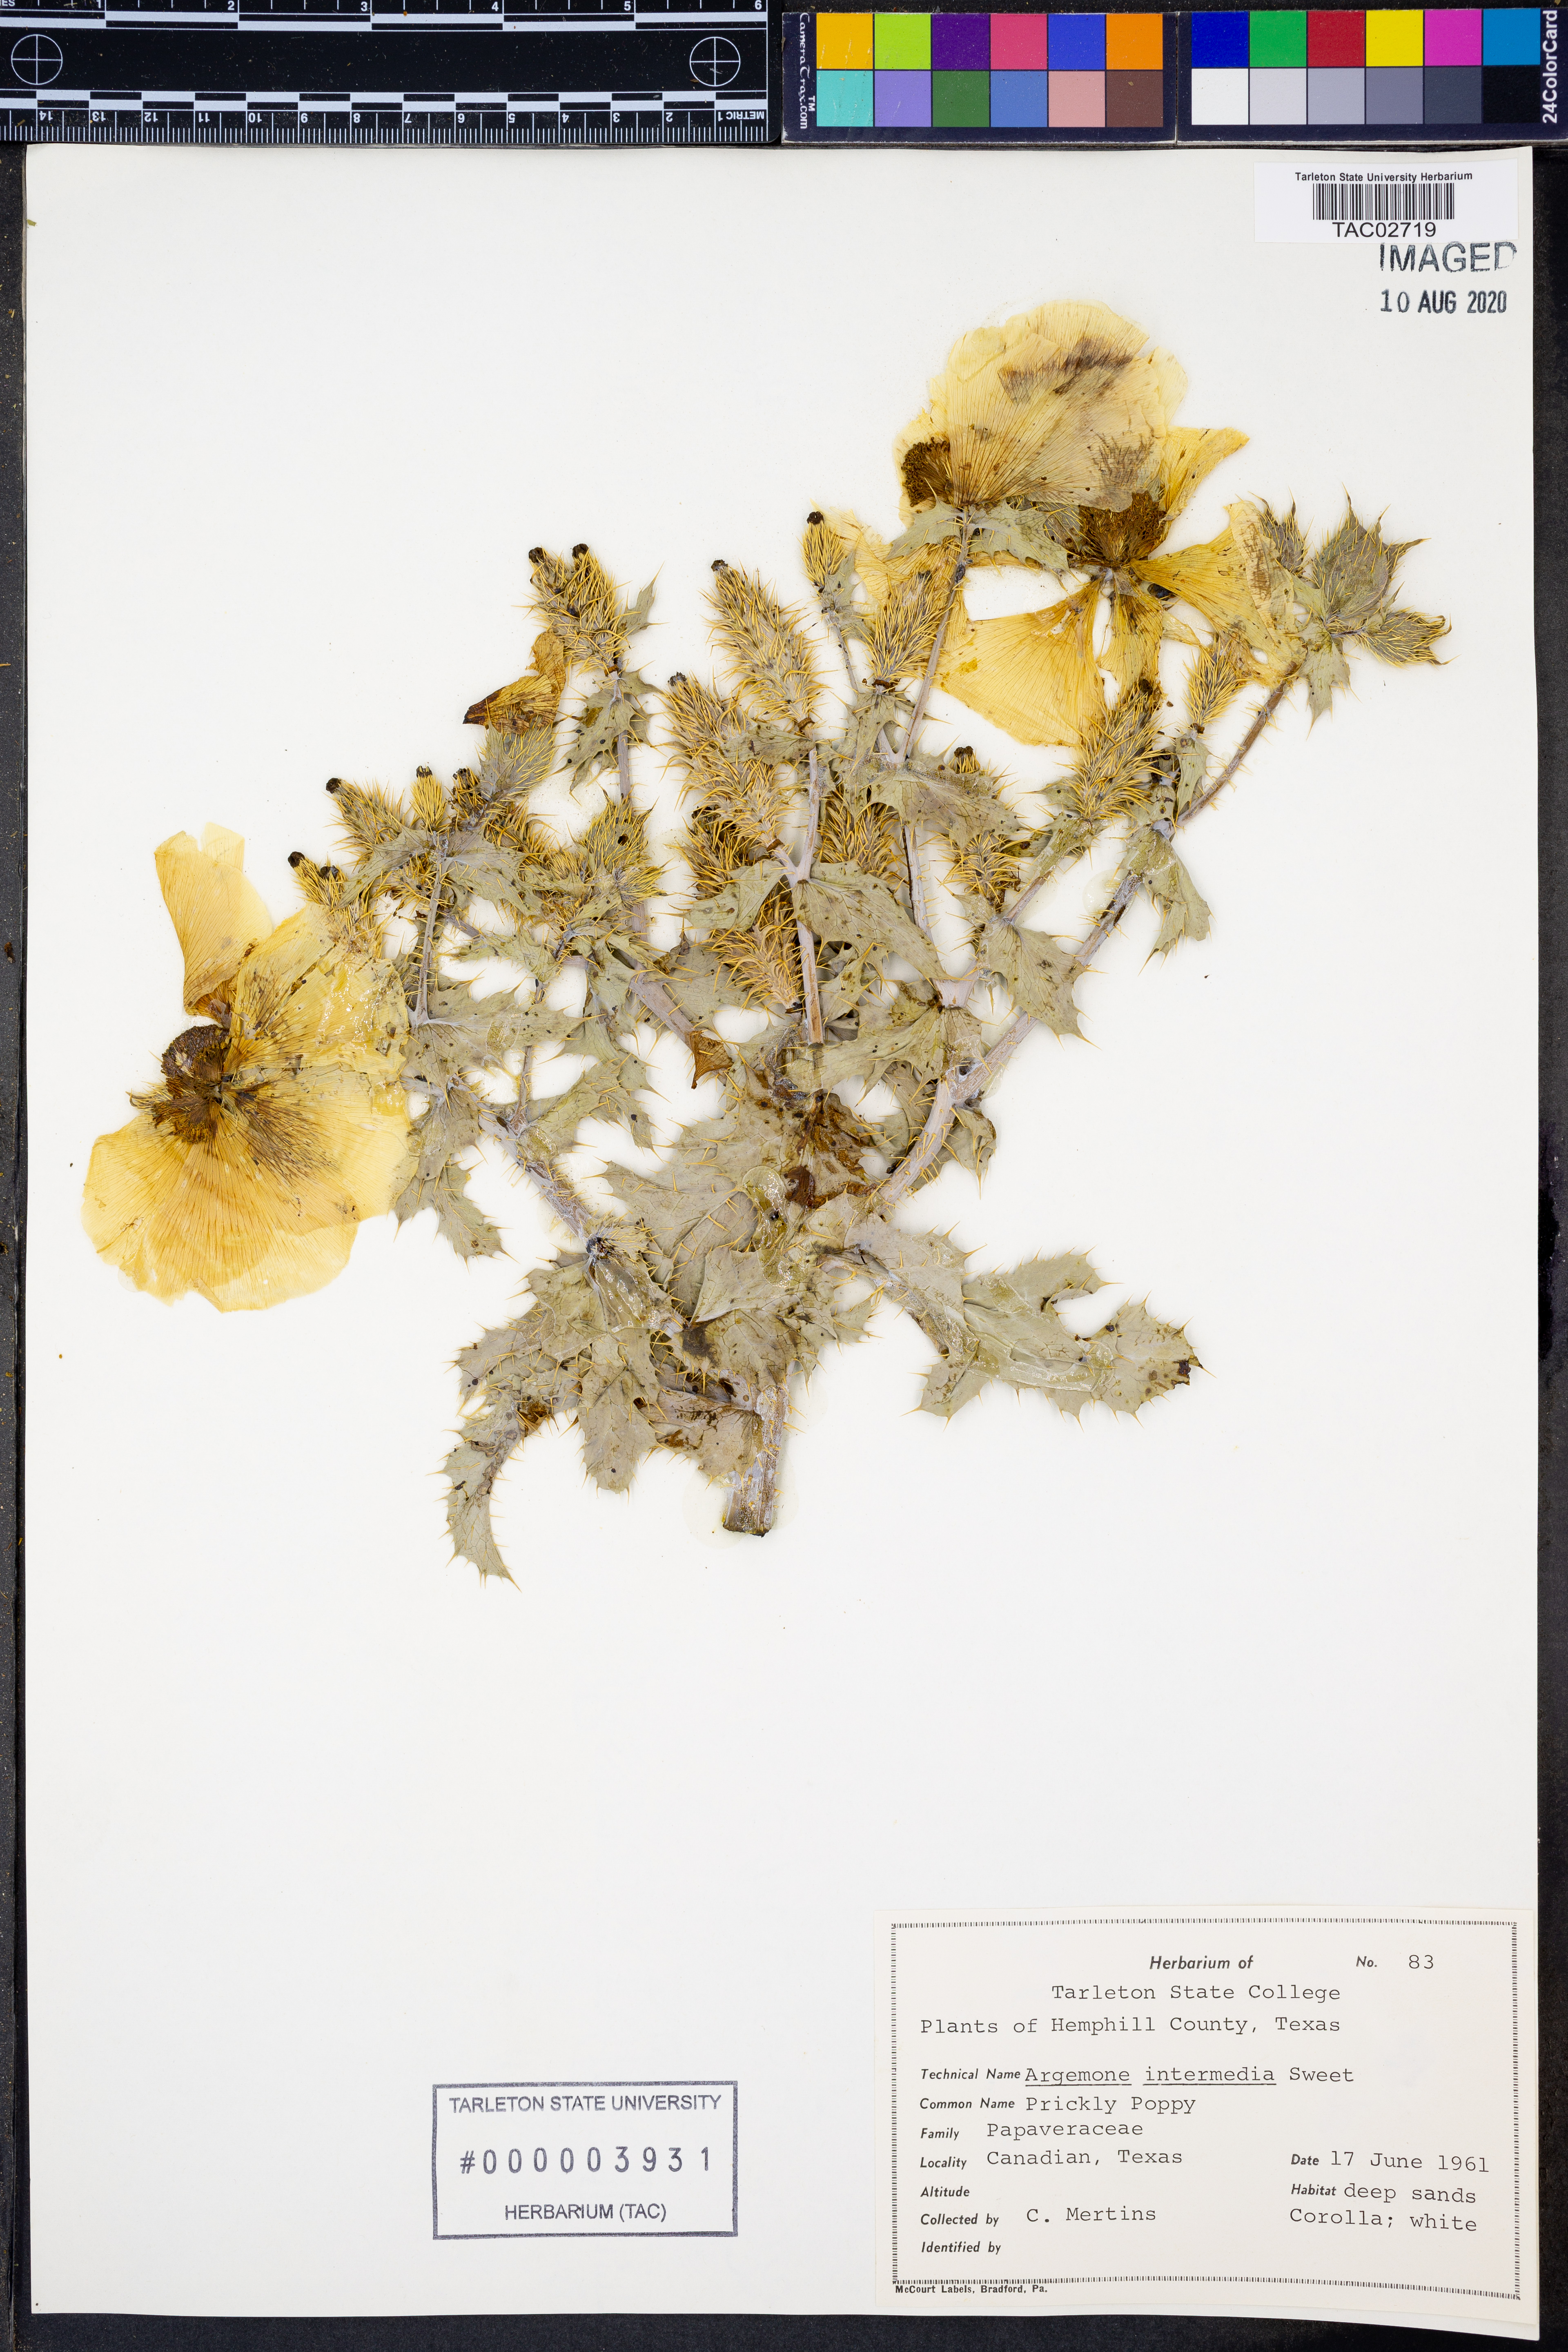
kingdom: Plantae
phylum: Tracheophyta
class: Magnoliopsida
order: Ranunculales
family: Papaveraceae
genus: Argemone
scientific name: Argemone intermedia
